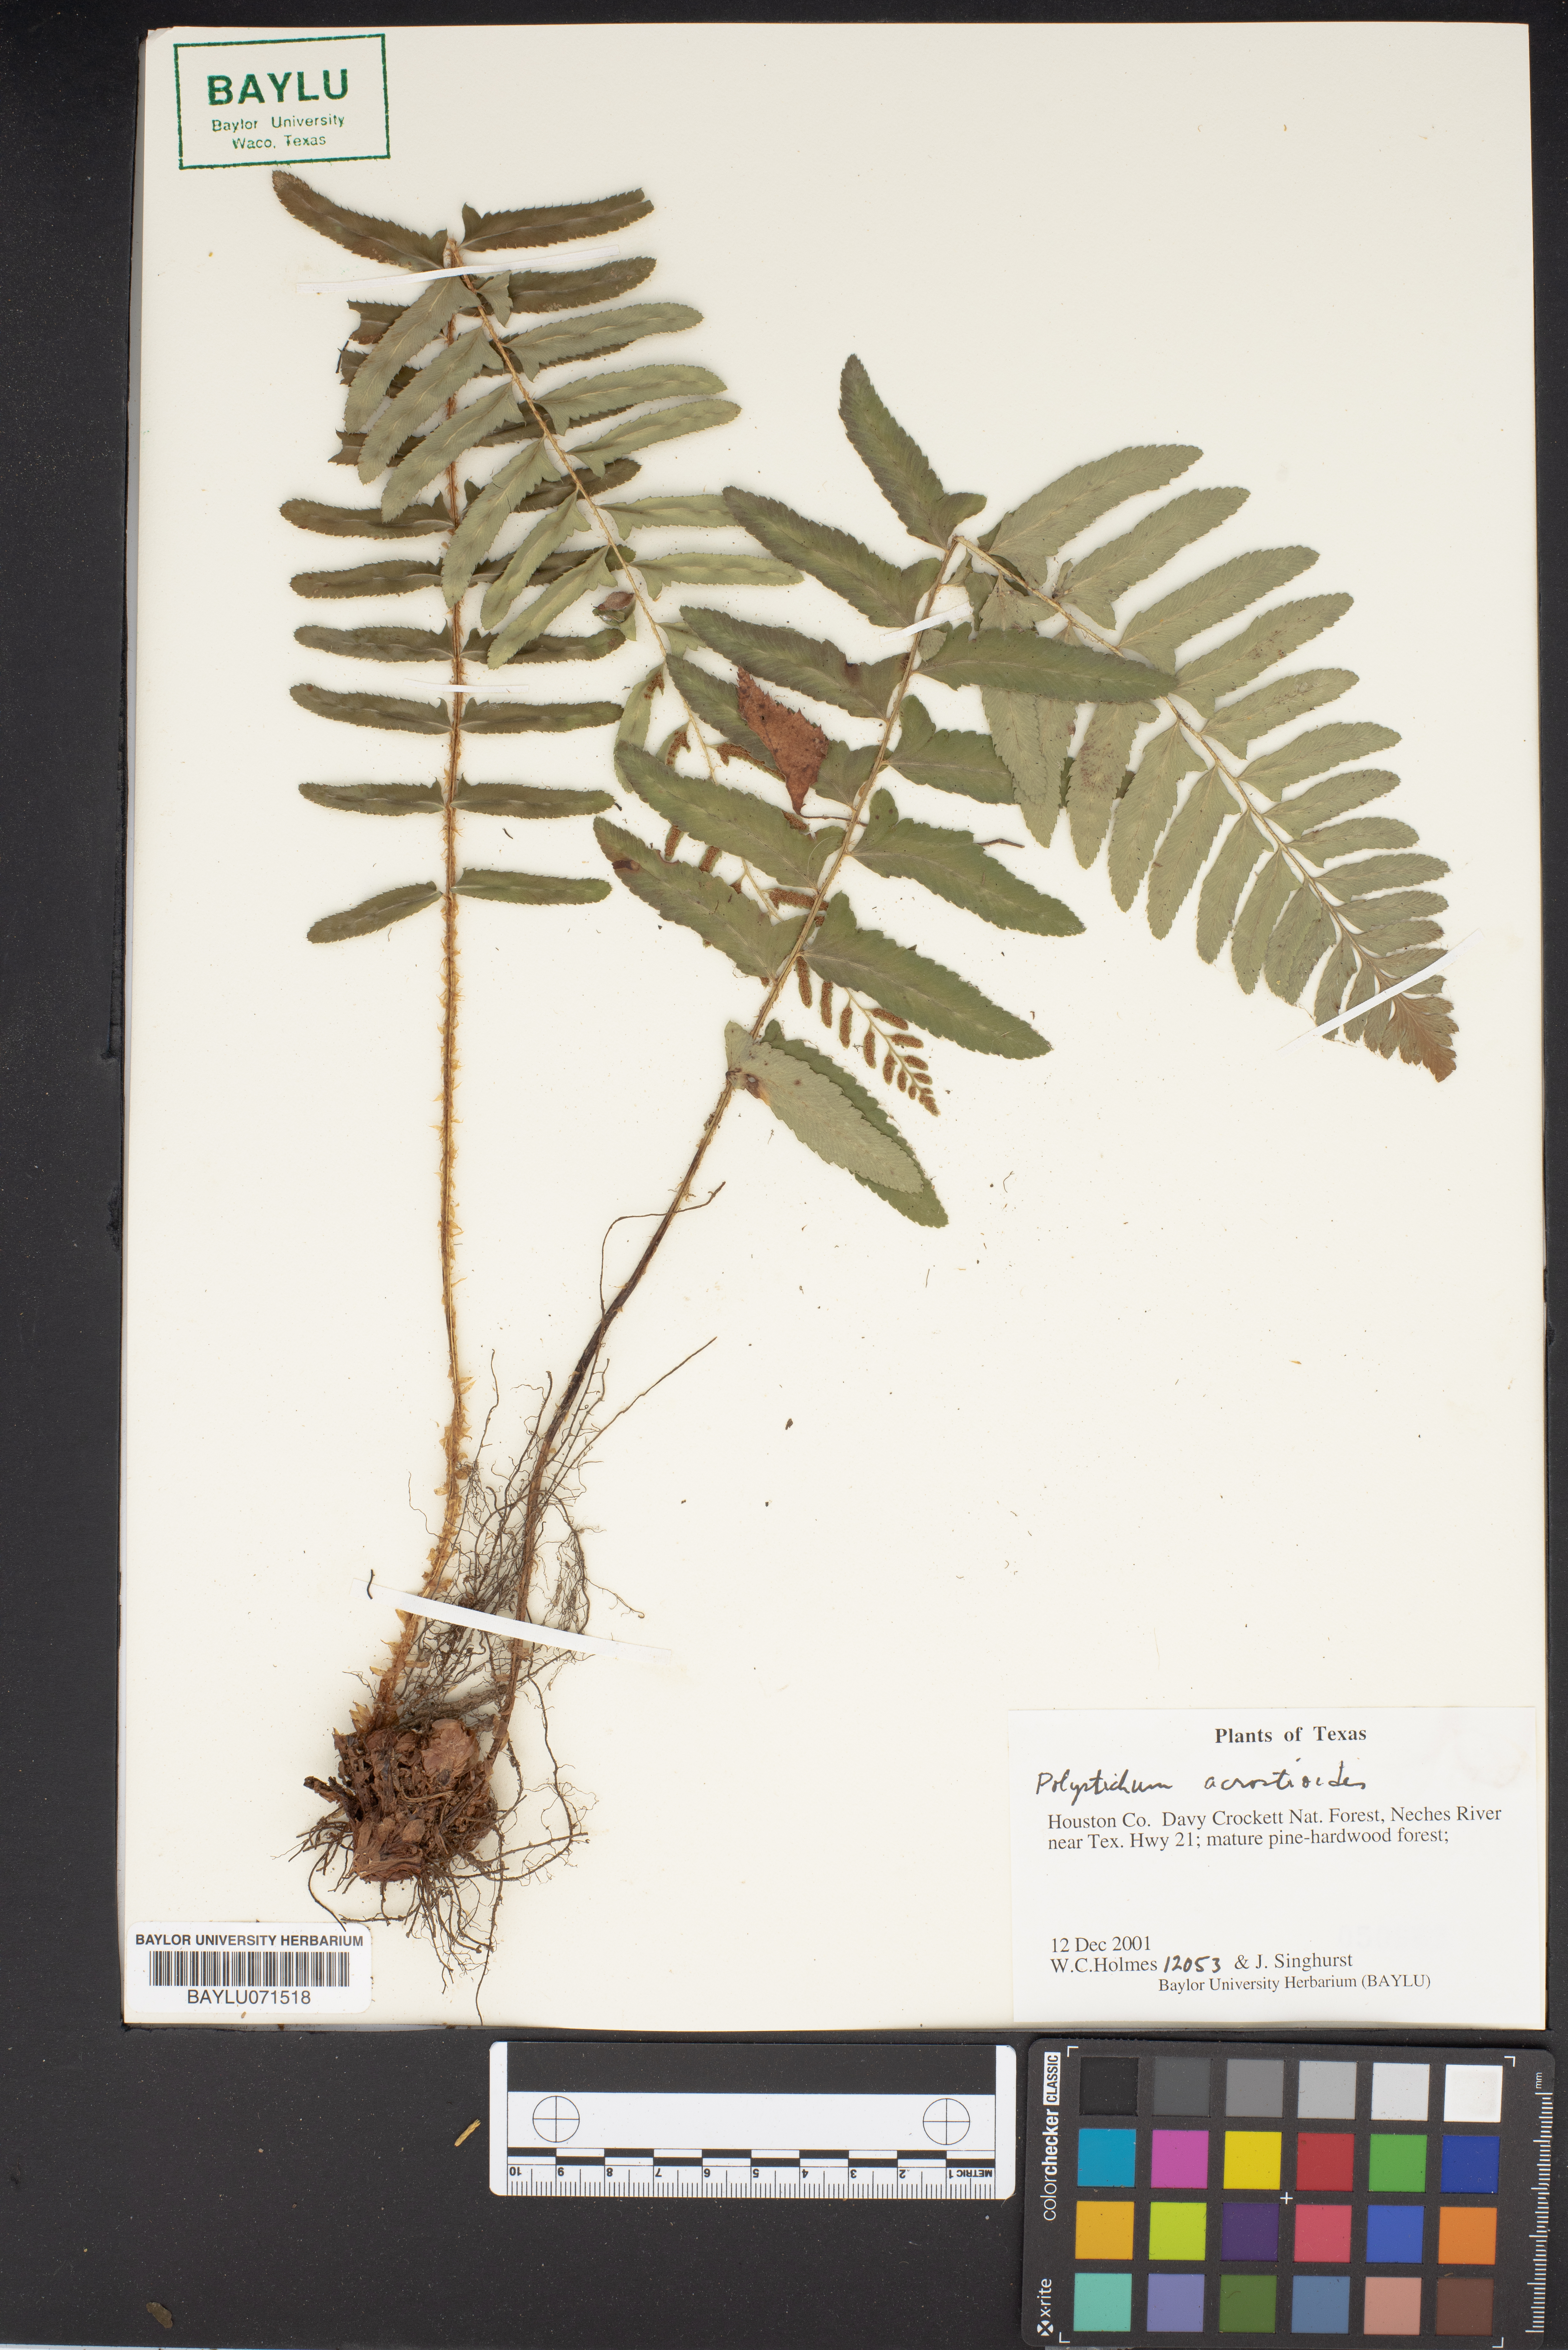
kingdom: Plantae
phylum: Tracheophyta
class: Polypodiopsida
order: Polypodiales
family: Dryopteridaceae
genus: Polystichum
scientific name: Polystichum acrostichoides
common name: Christmas fern
